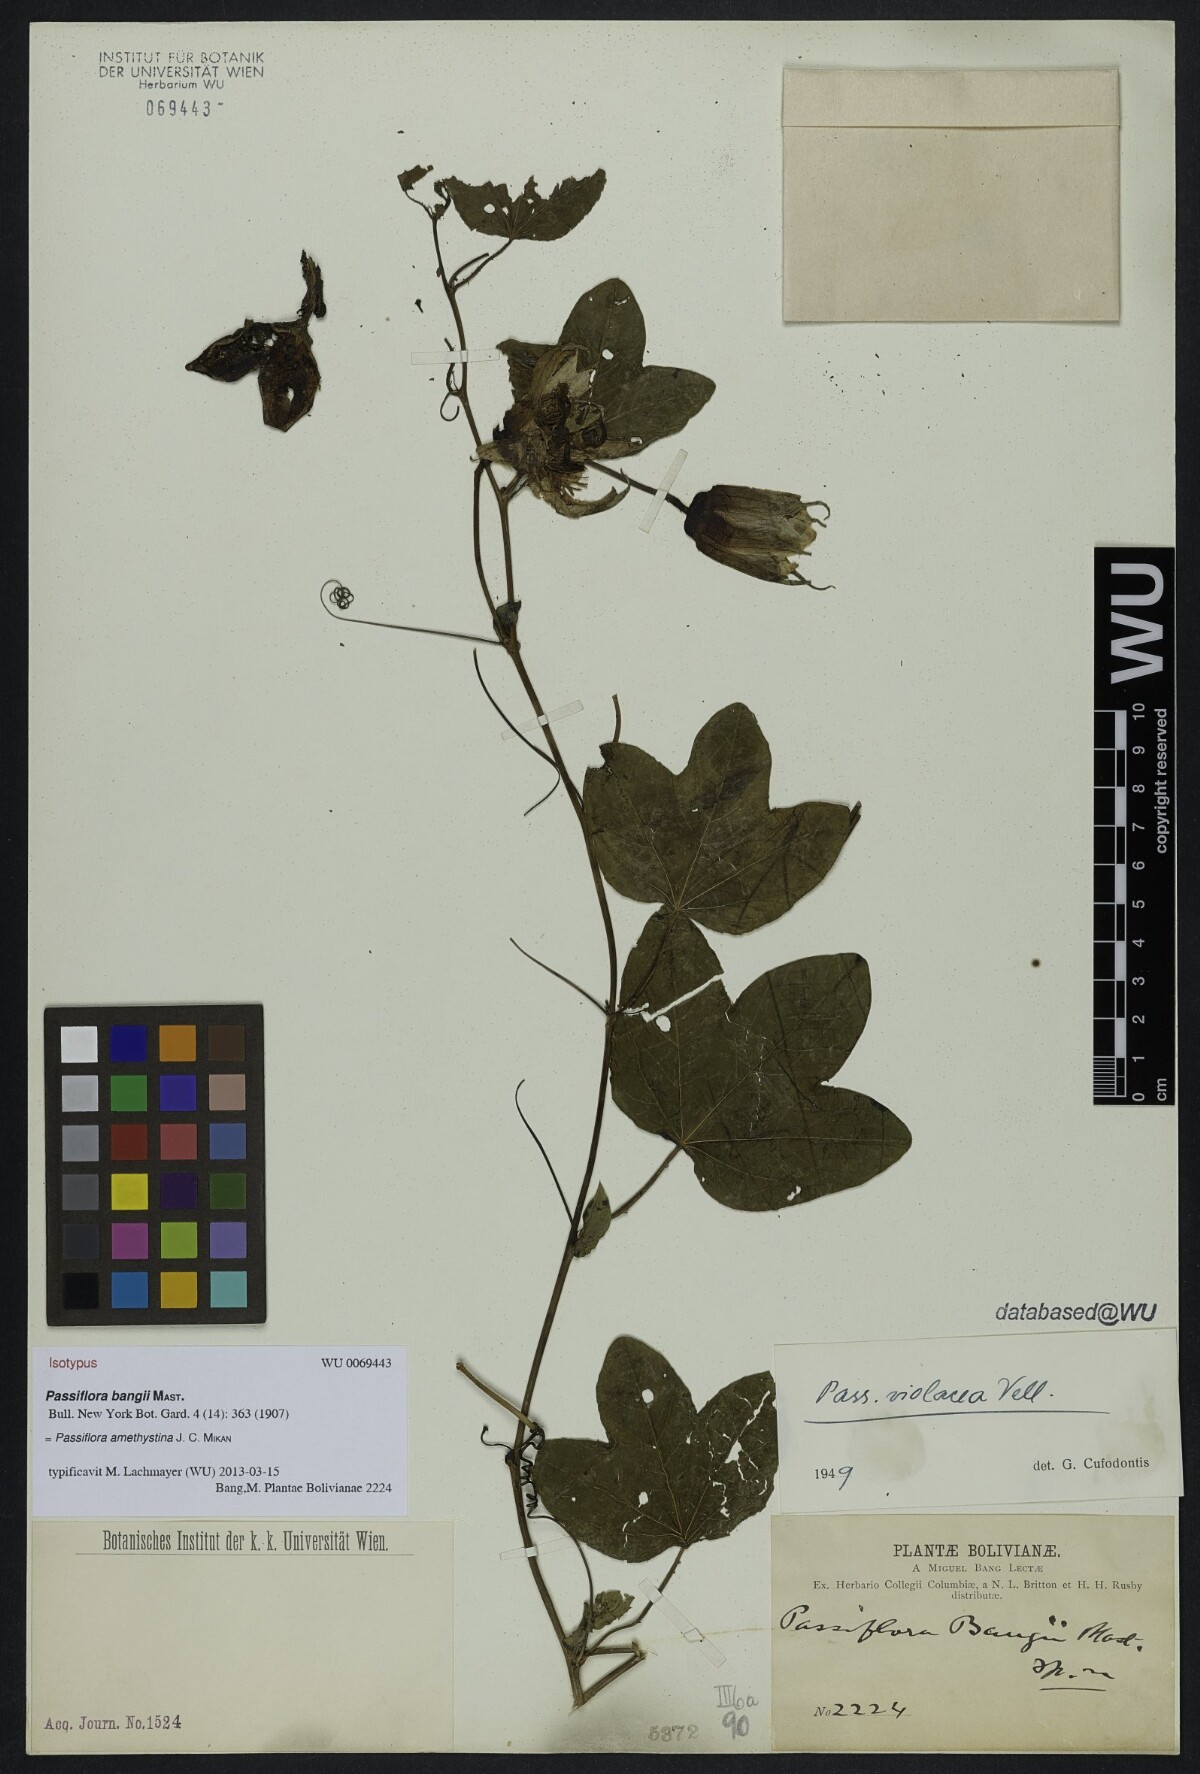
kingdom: Plantae
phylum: Tracheophyta
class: Magnoliopsida
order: Malpighiales
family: Passifloraceae
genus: Passiflora
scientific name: Passiflora amethystina
